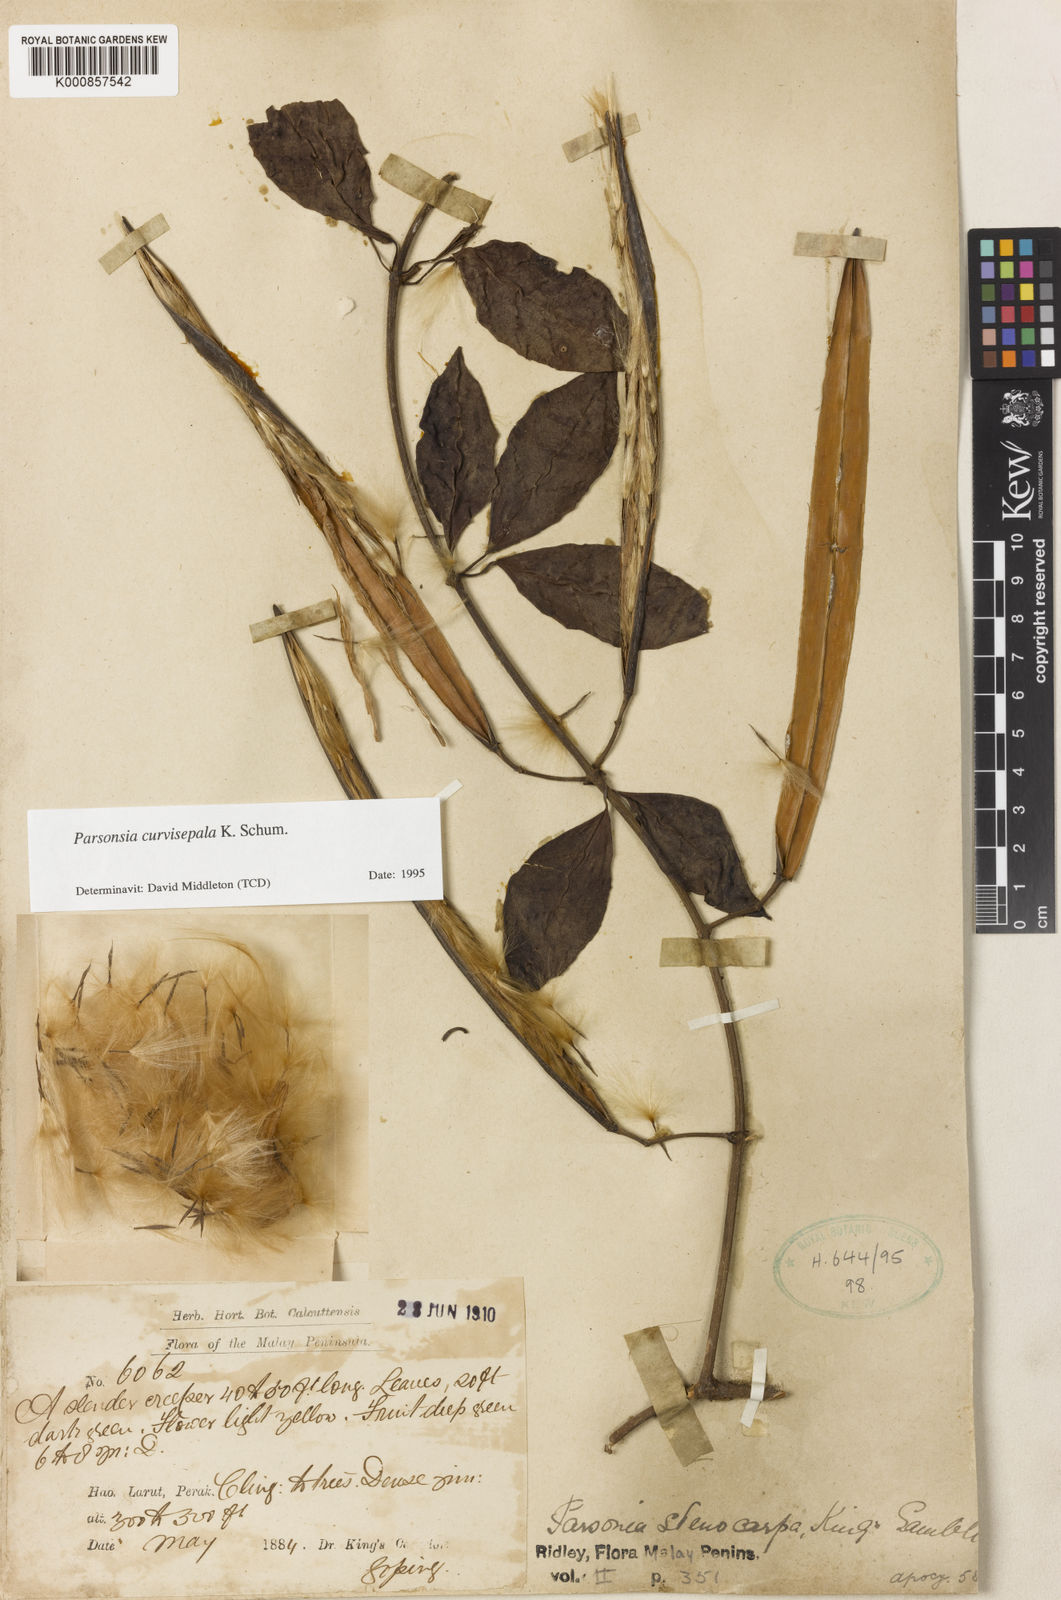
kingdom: Plantae
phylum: Tracheophyta
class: Magnoliopsida
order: Gentianales
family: Apocynaceae
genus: Parsonsia
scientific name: Parsonsia curvisepala
